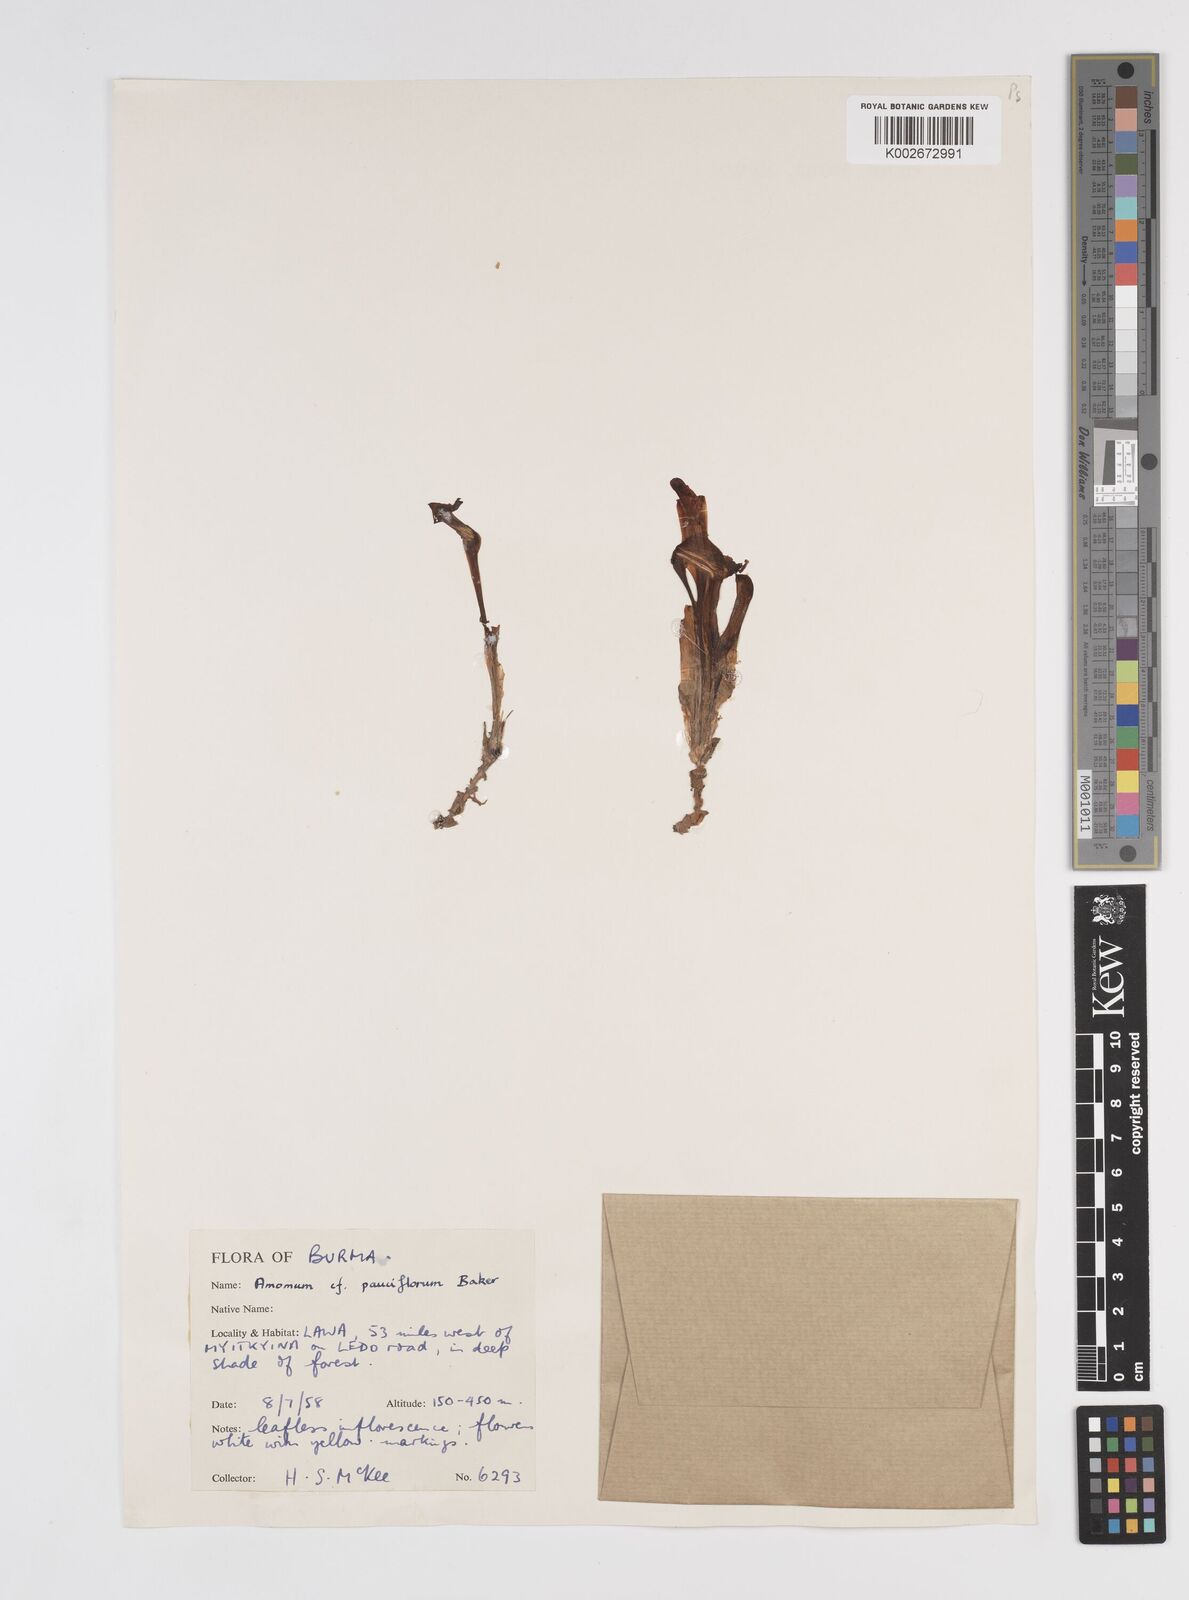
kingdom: Plantae
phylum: Tracheophyta
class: Liliopsida
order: Zingiberales
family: Zingiberaceae
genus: Amomum
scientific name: Amomum pauciflorum
